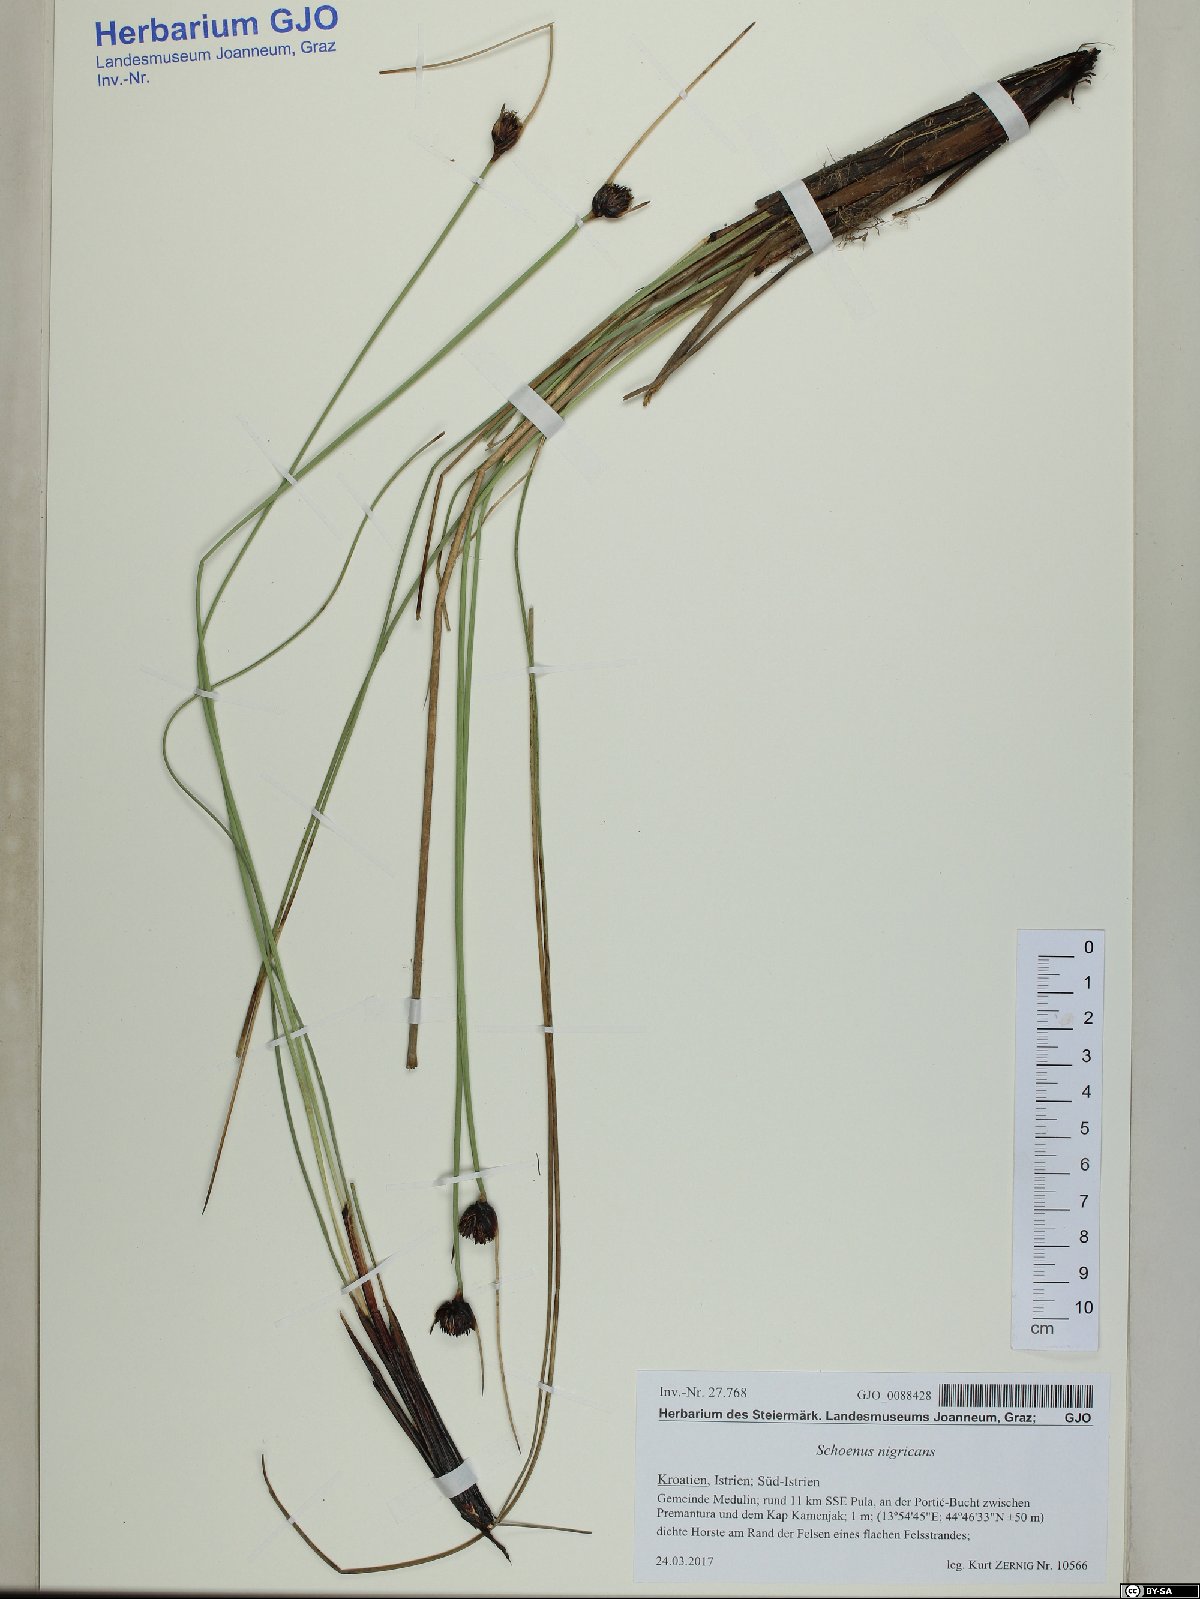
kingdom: Plantae
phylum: Tracheophyta
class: Liliopsida
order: Poales
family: Cyperaceae
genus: Schoenus
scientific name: Schoenus nigricans
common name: Black bog-rush
